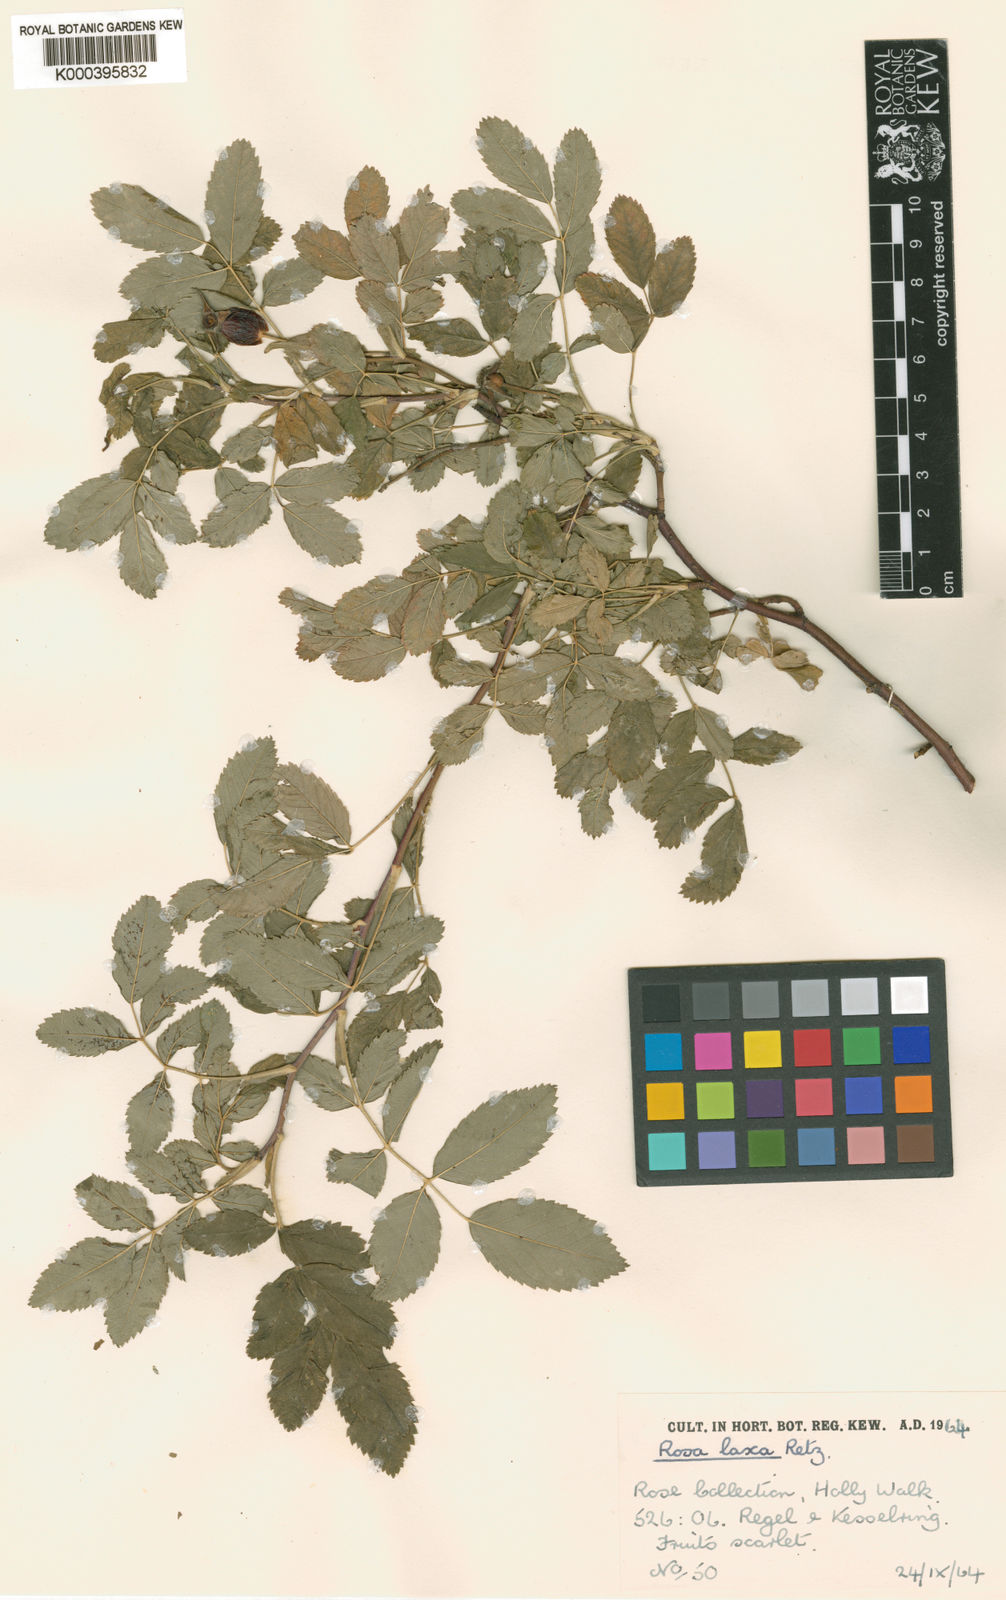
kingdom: Plantae
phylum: Tracheophyta
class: Magnoliopsida
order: Rosales
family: Rosaceae
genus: Rosa
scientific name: Rosa laxa
